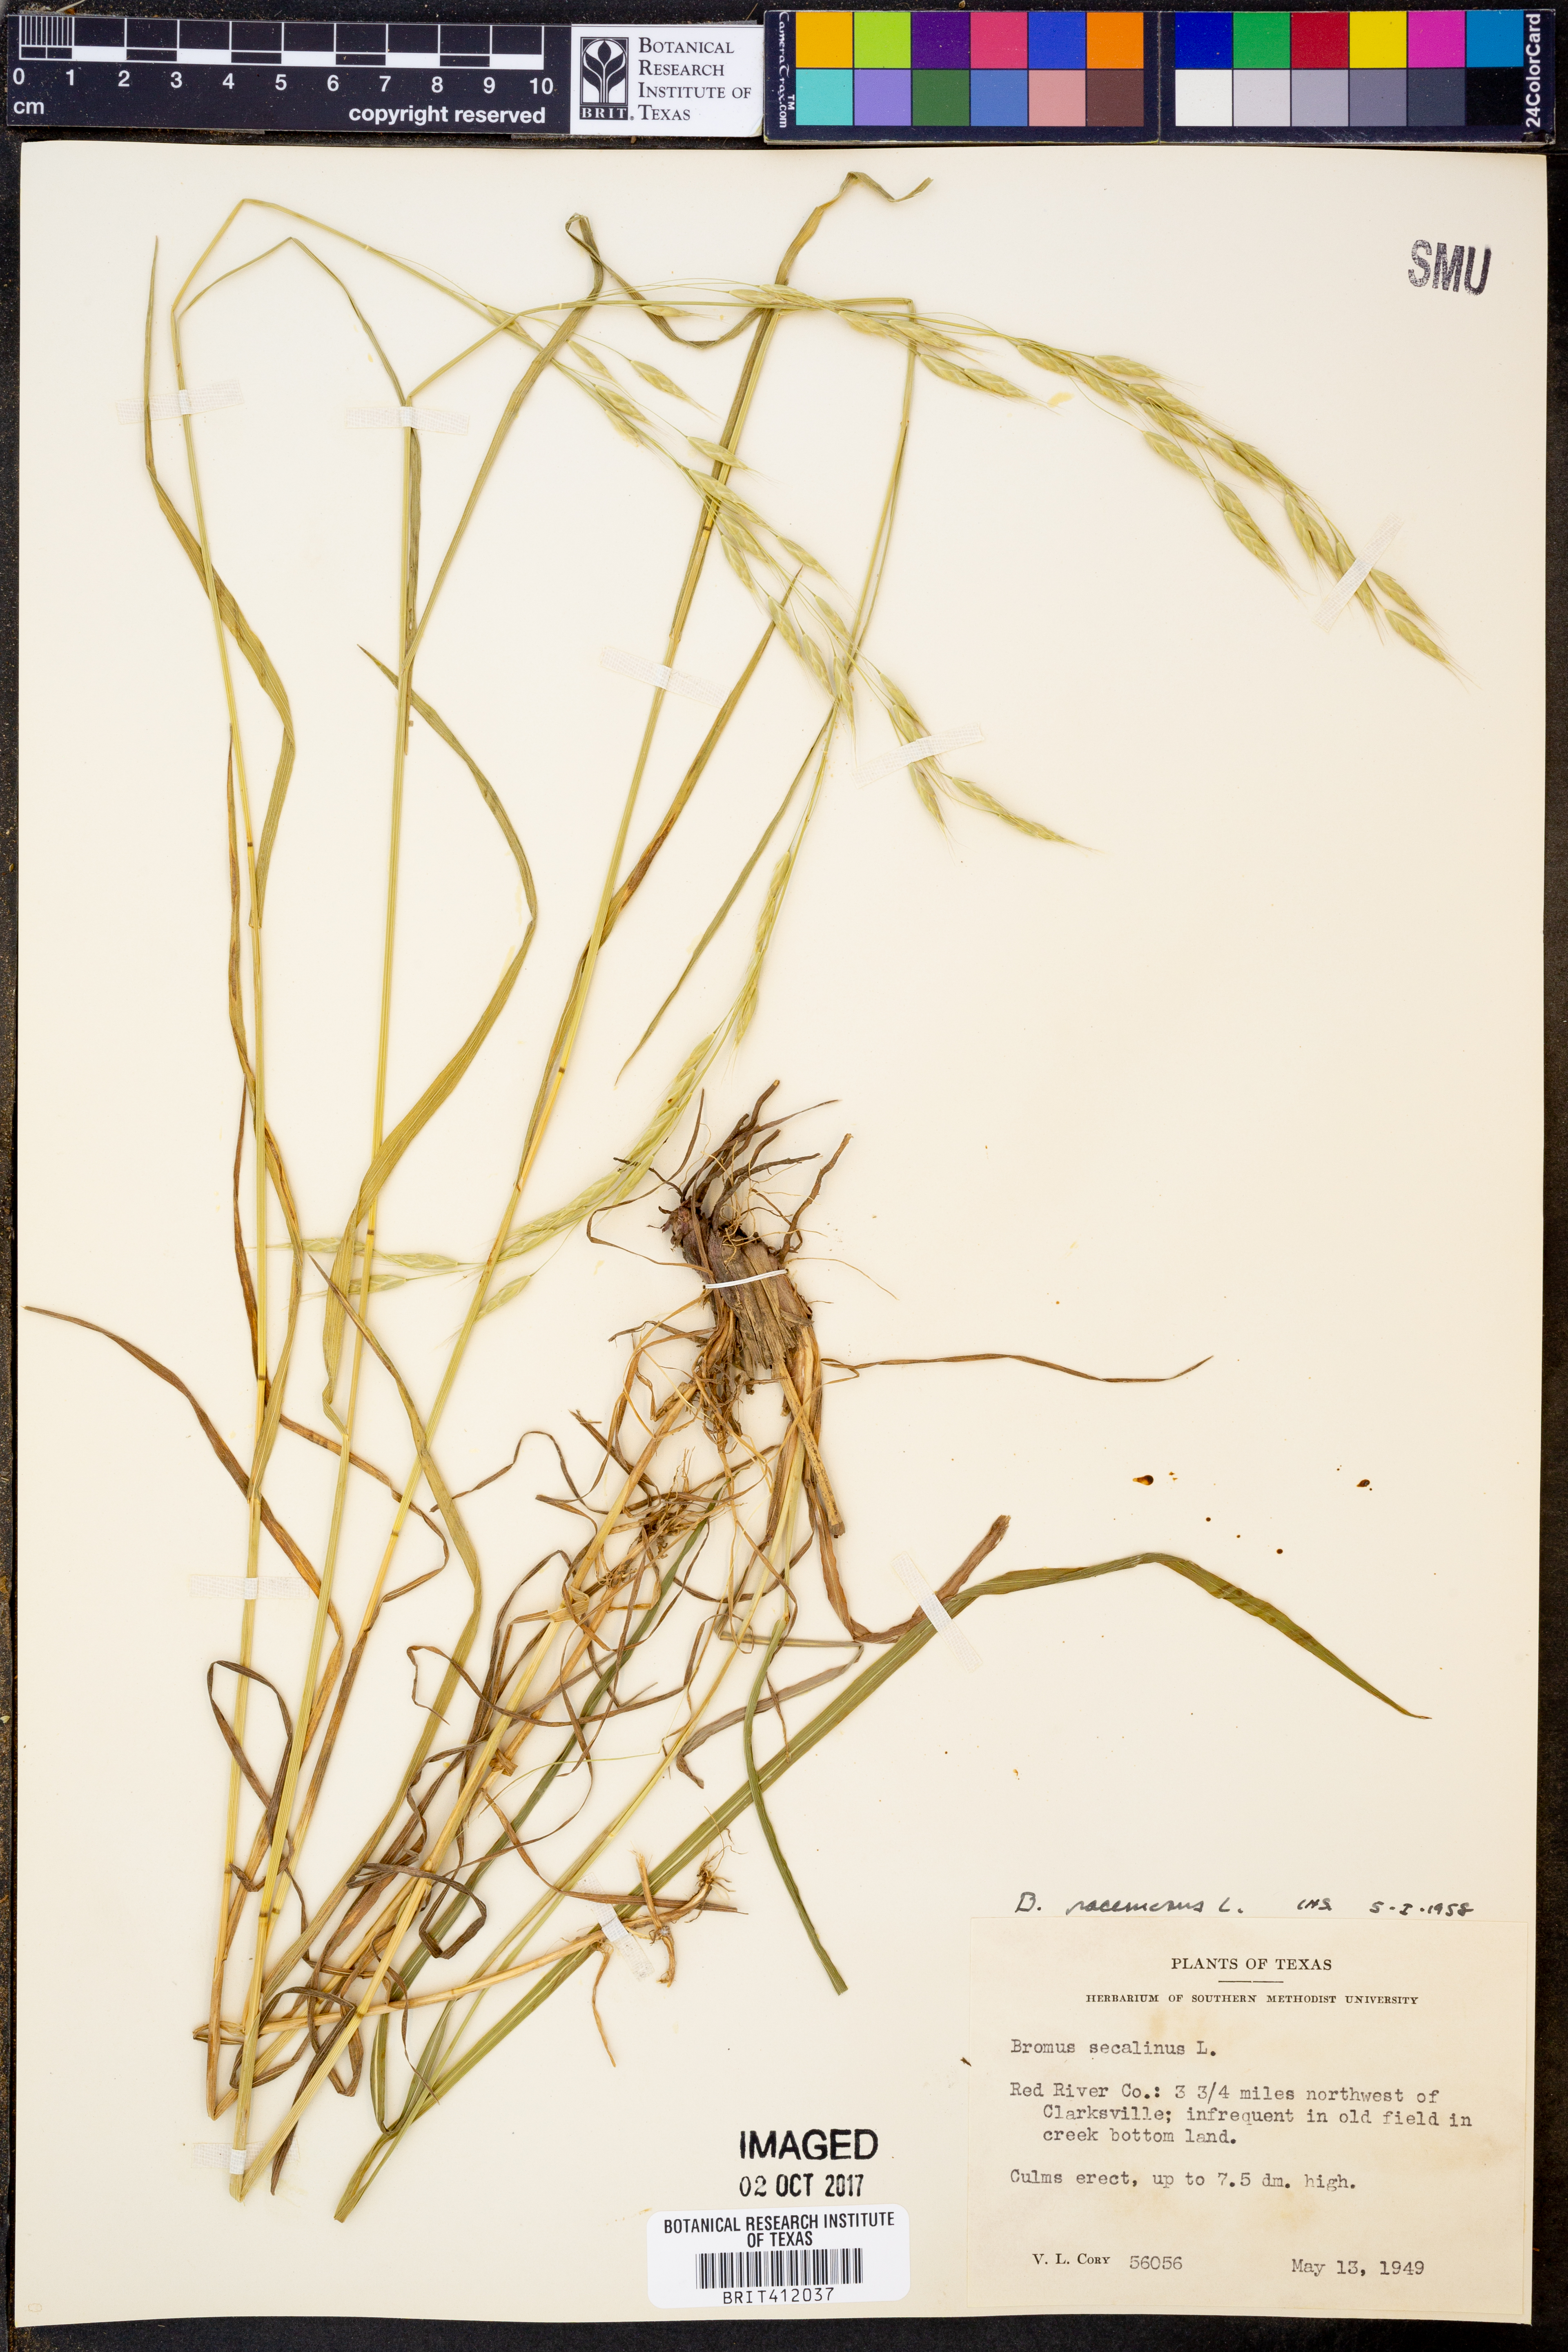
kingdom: Plantae
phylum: Tracheophyta
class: Liliopsida
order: Poales
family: Poaceae
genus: Bromus
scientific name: Bromus racemosus
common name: Bald brome
